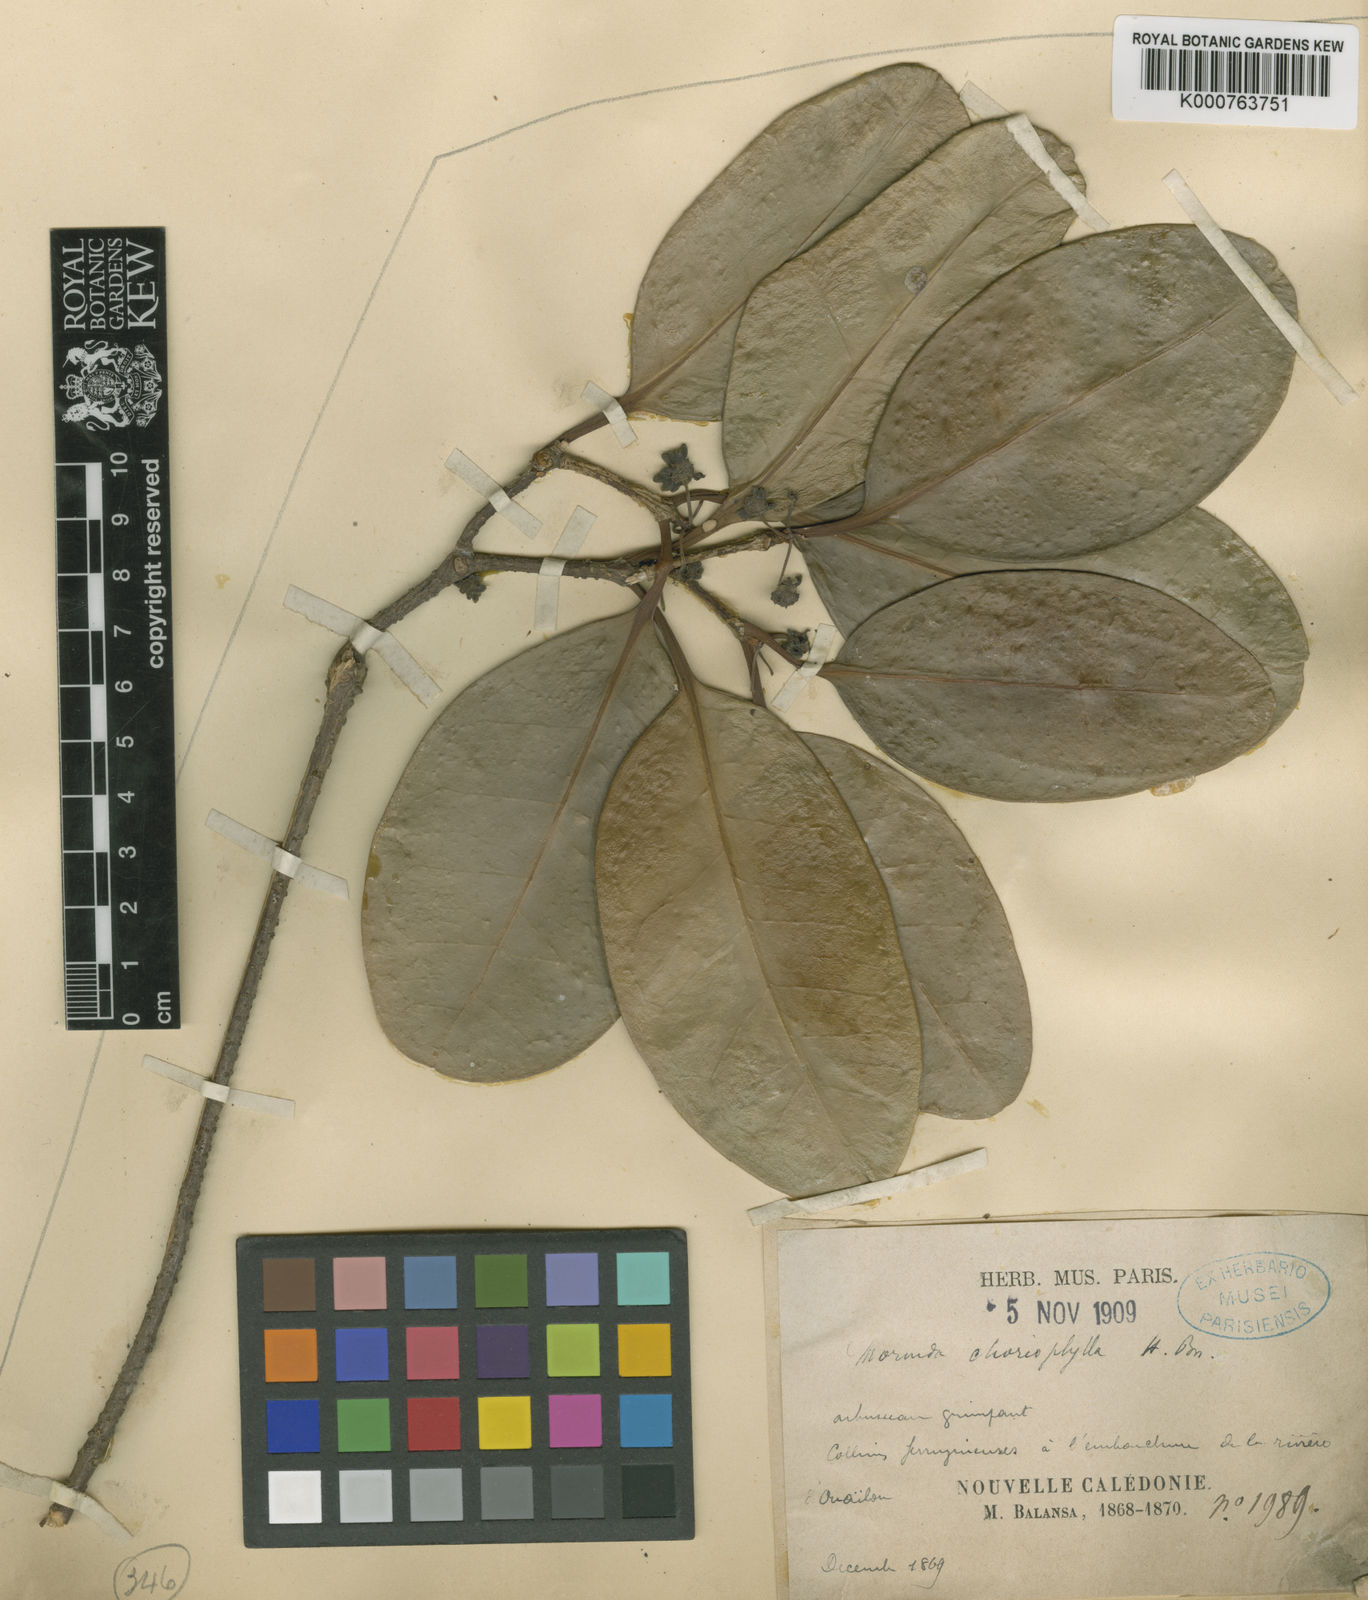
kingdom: Plantae
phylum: Tracheophyta
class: Magnoliopsida
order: Gentianales
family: Rubiaceae
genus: Gynochthodes
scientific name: Gynochthodes myrtifolia
